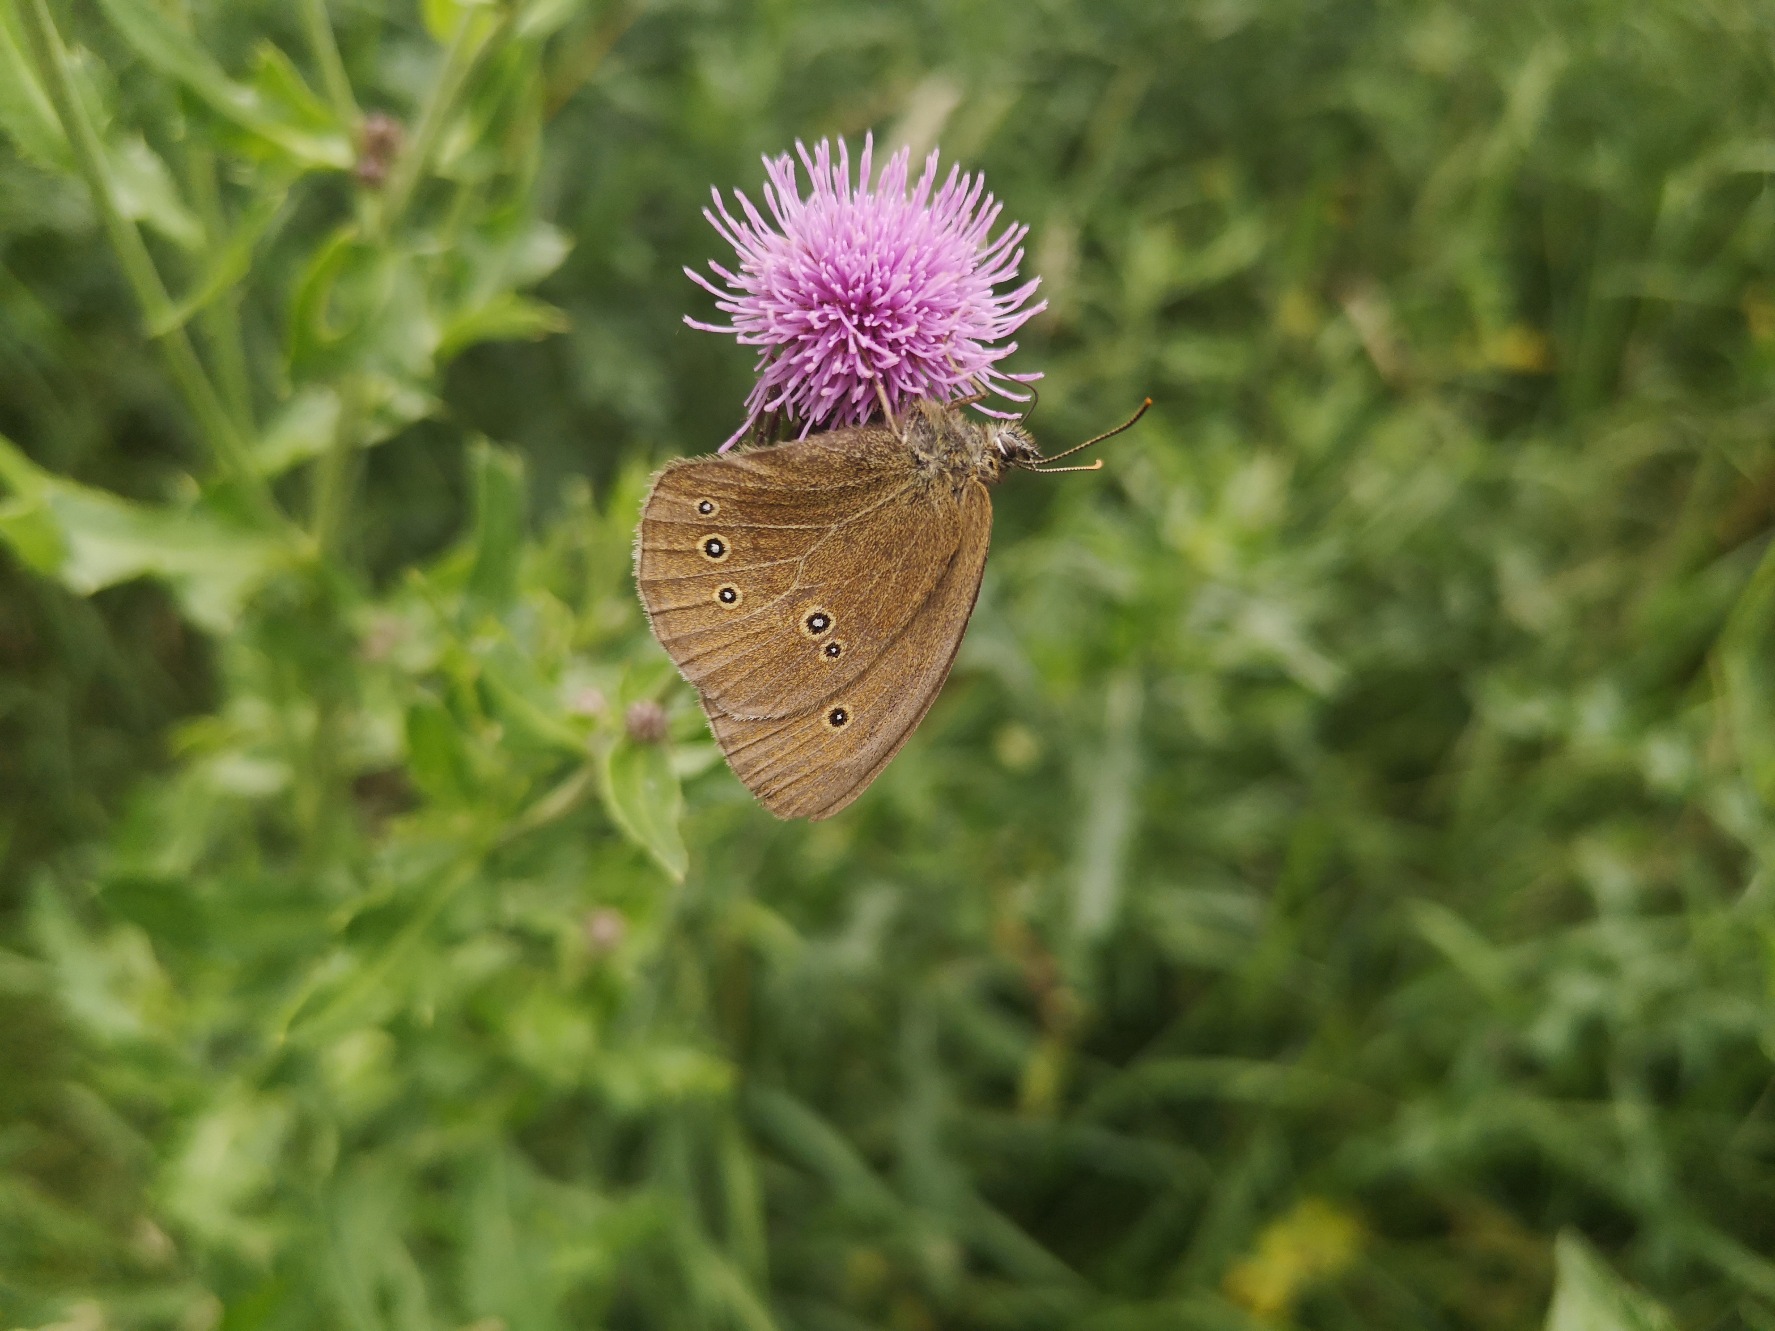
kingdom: Animalia
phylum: Arthropoda
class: Insecta
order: Lepidoptera
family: Nymphalidae
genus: Aphantopus
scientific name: Aphantopus hyperantus
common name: Engrandøje
